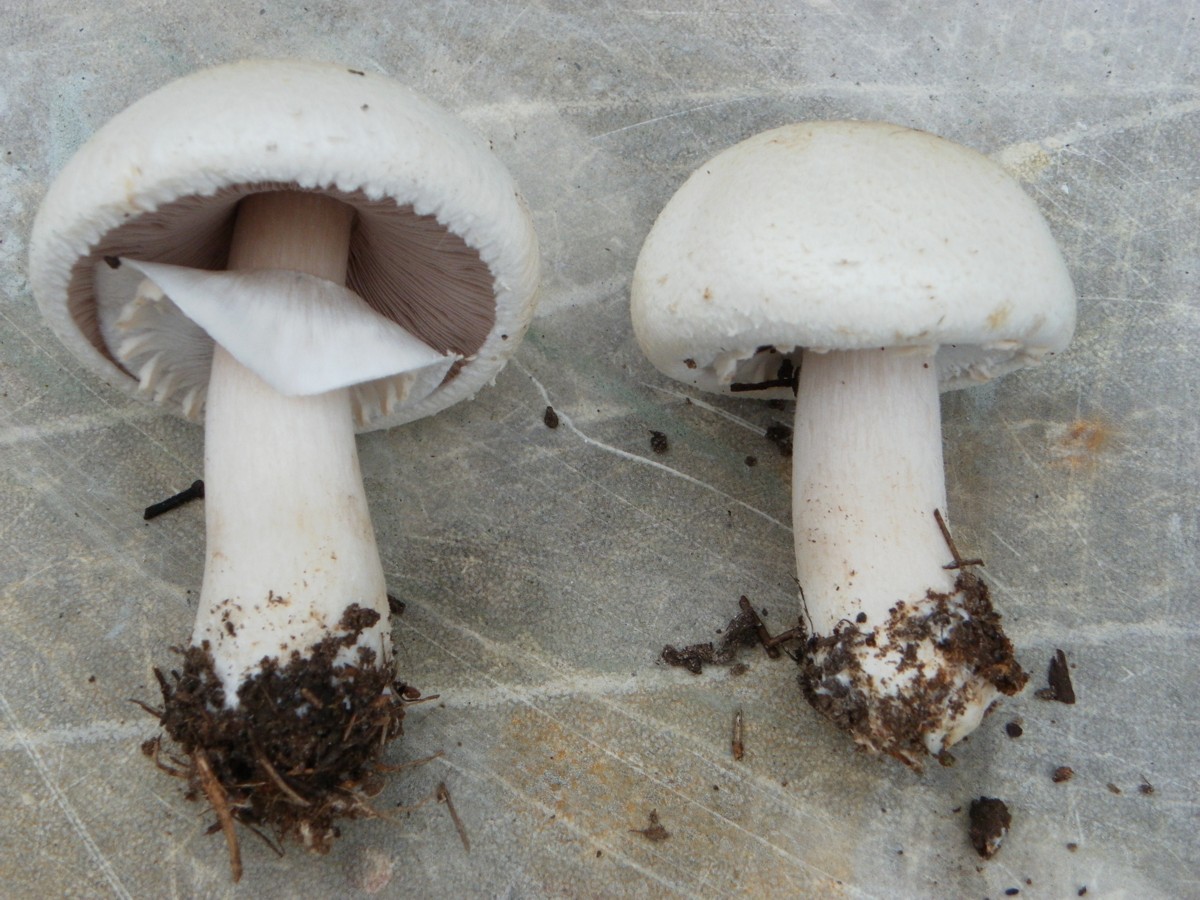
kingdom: Fungi
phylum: Basidiomycota
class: Agaricomycetes
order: Agaricales
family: Agaricaceae
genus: Agaricus
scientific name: Agaricus arvensis
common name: ager-champignon
